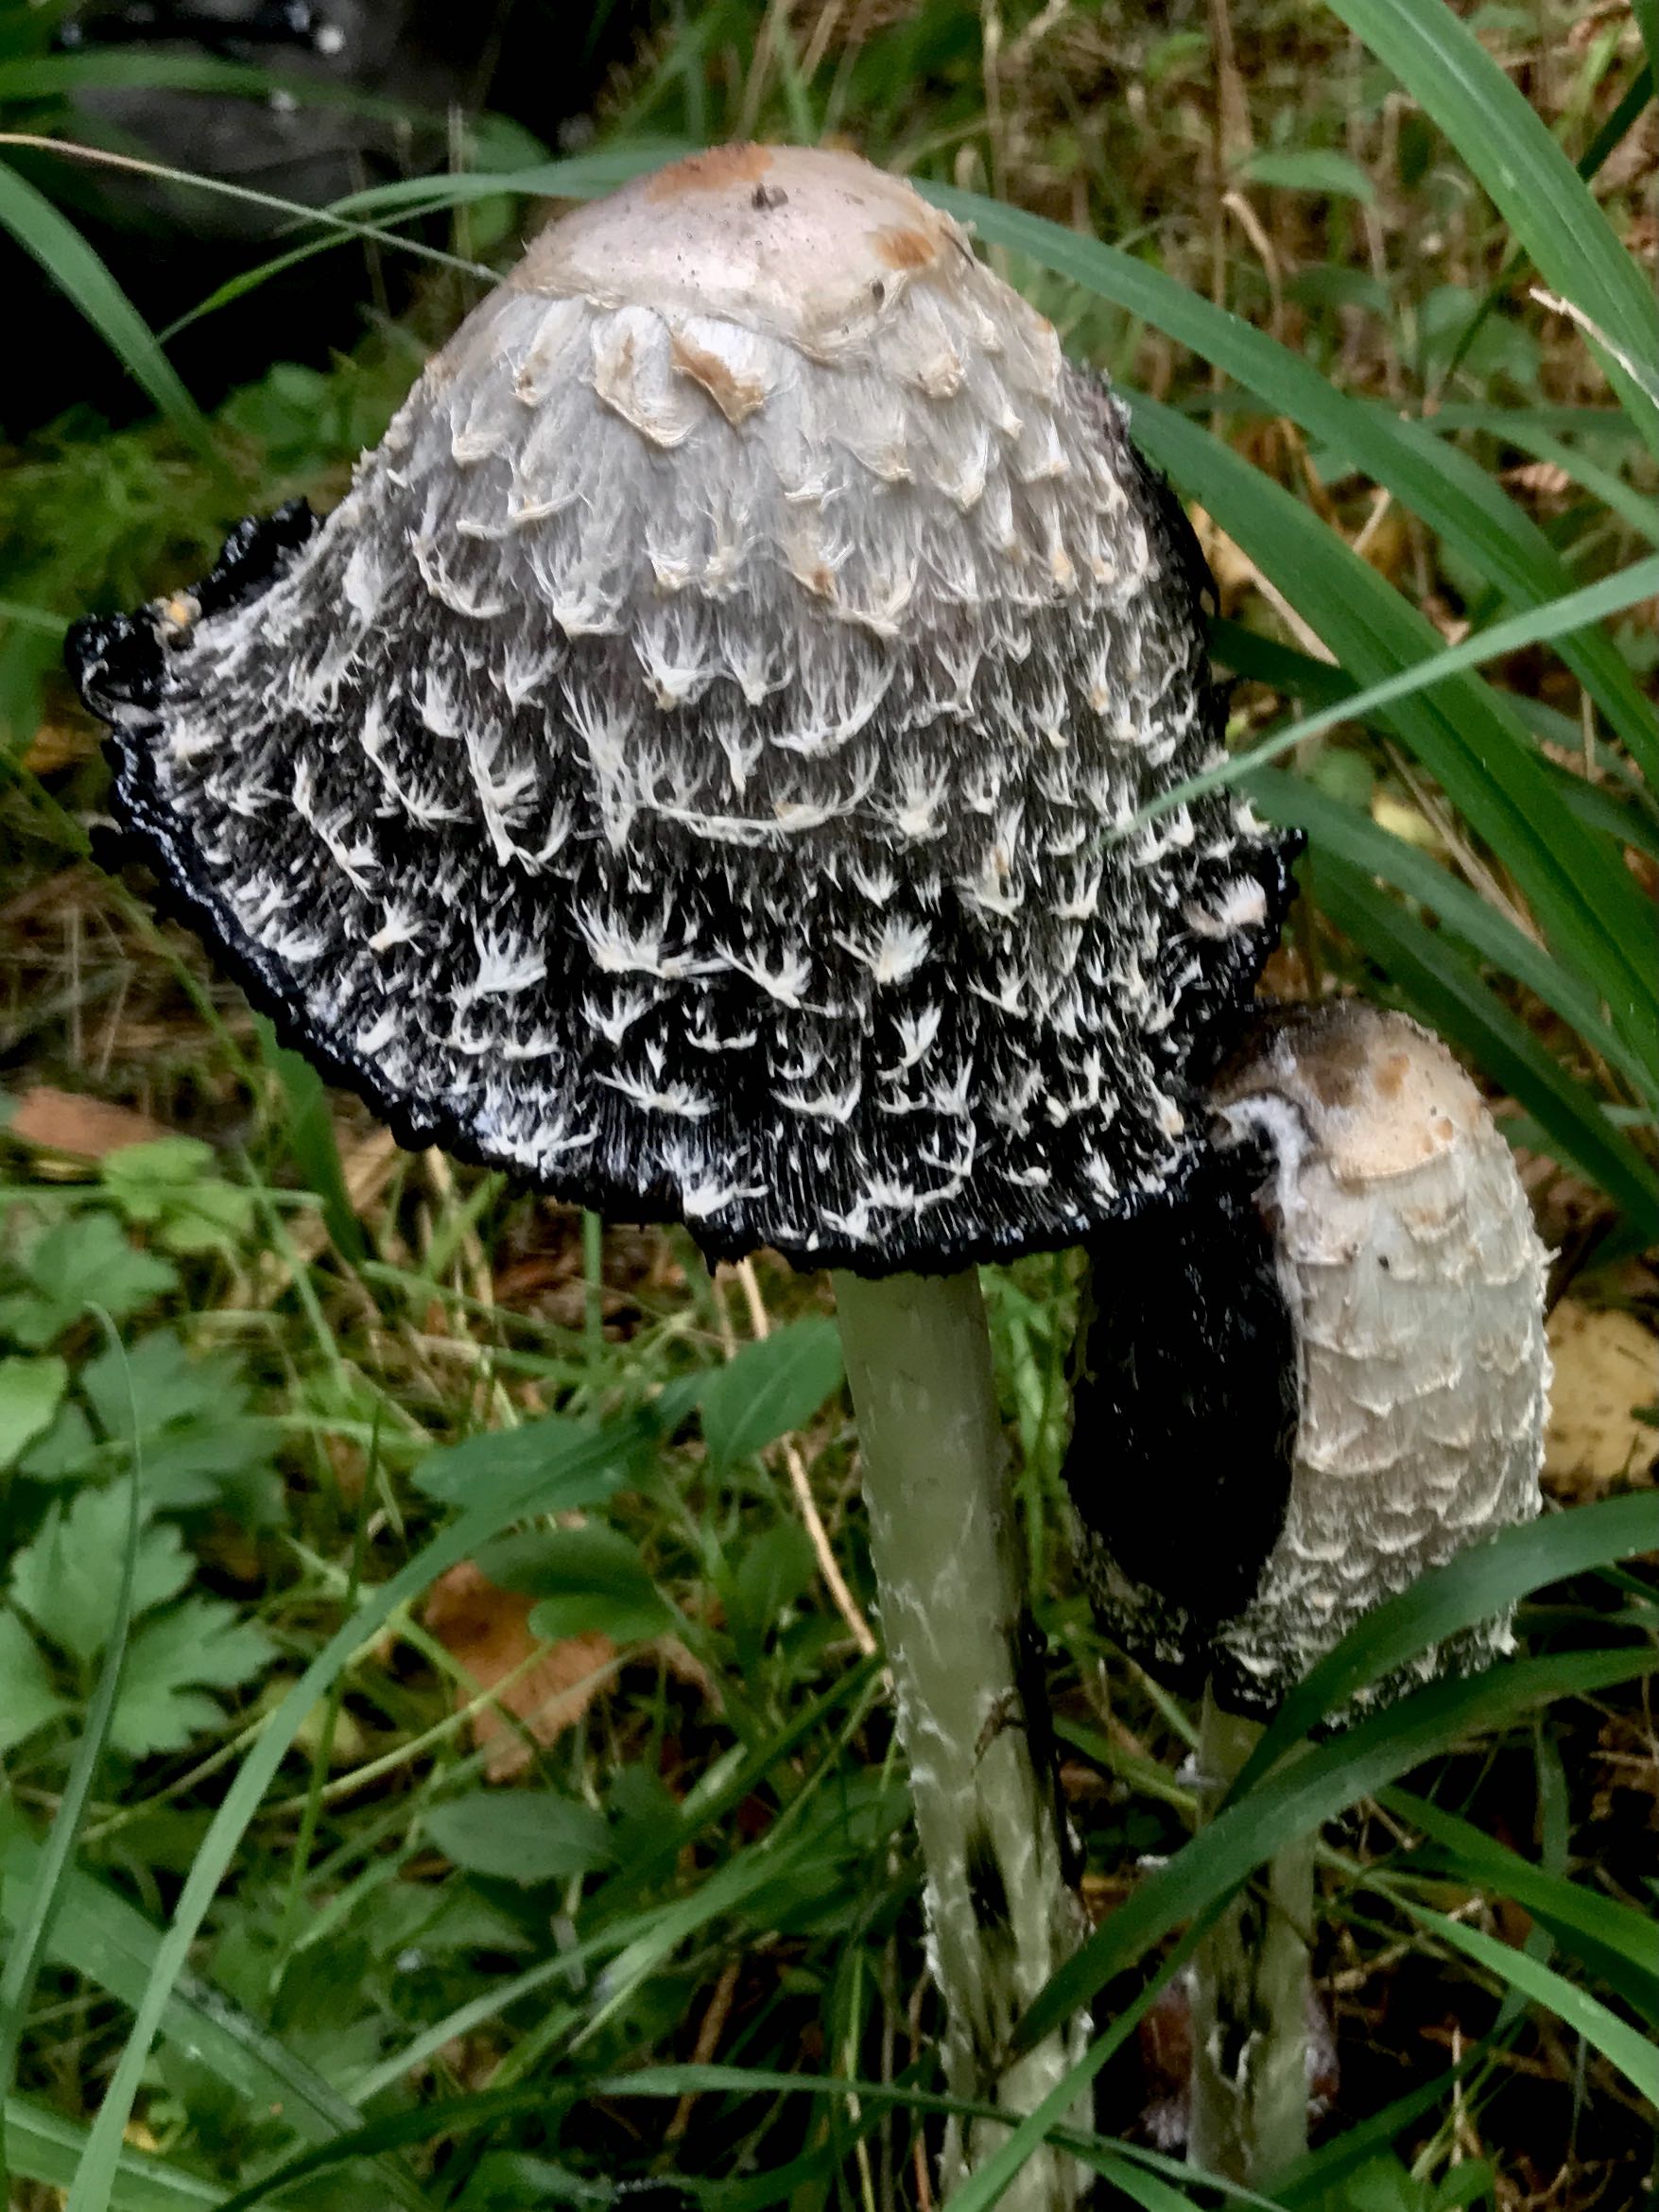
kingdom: Fungi
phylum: Basidiomycota
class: Agaricomycetes
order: Agaricales
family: Agaricaceae
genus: Coprinus
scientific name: Coprinus comatus
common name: stor parykhat
